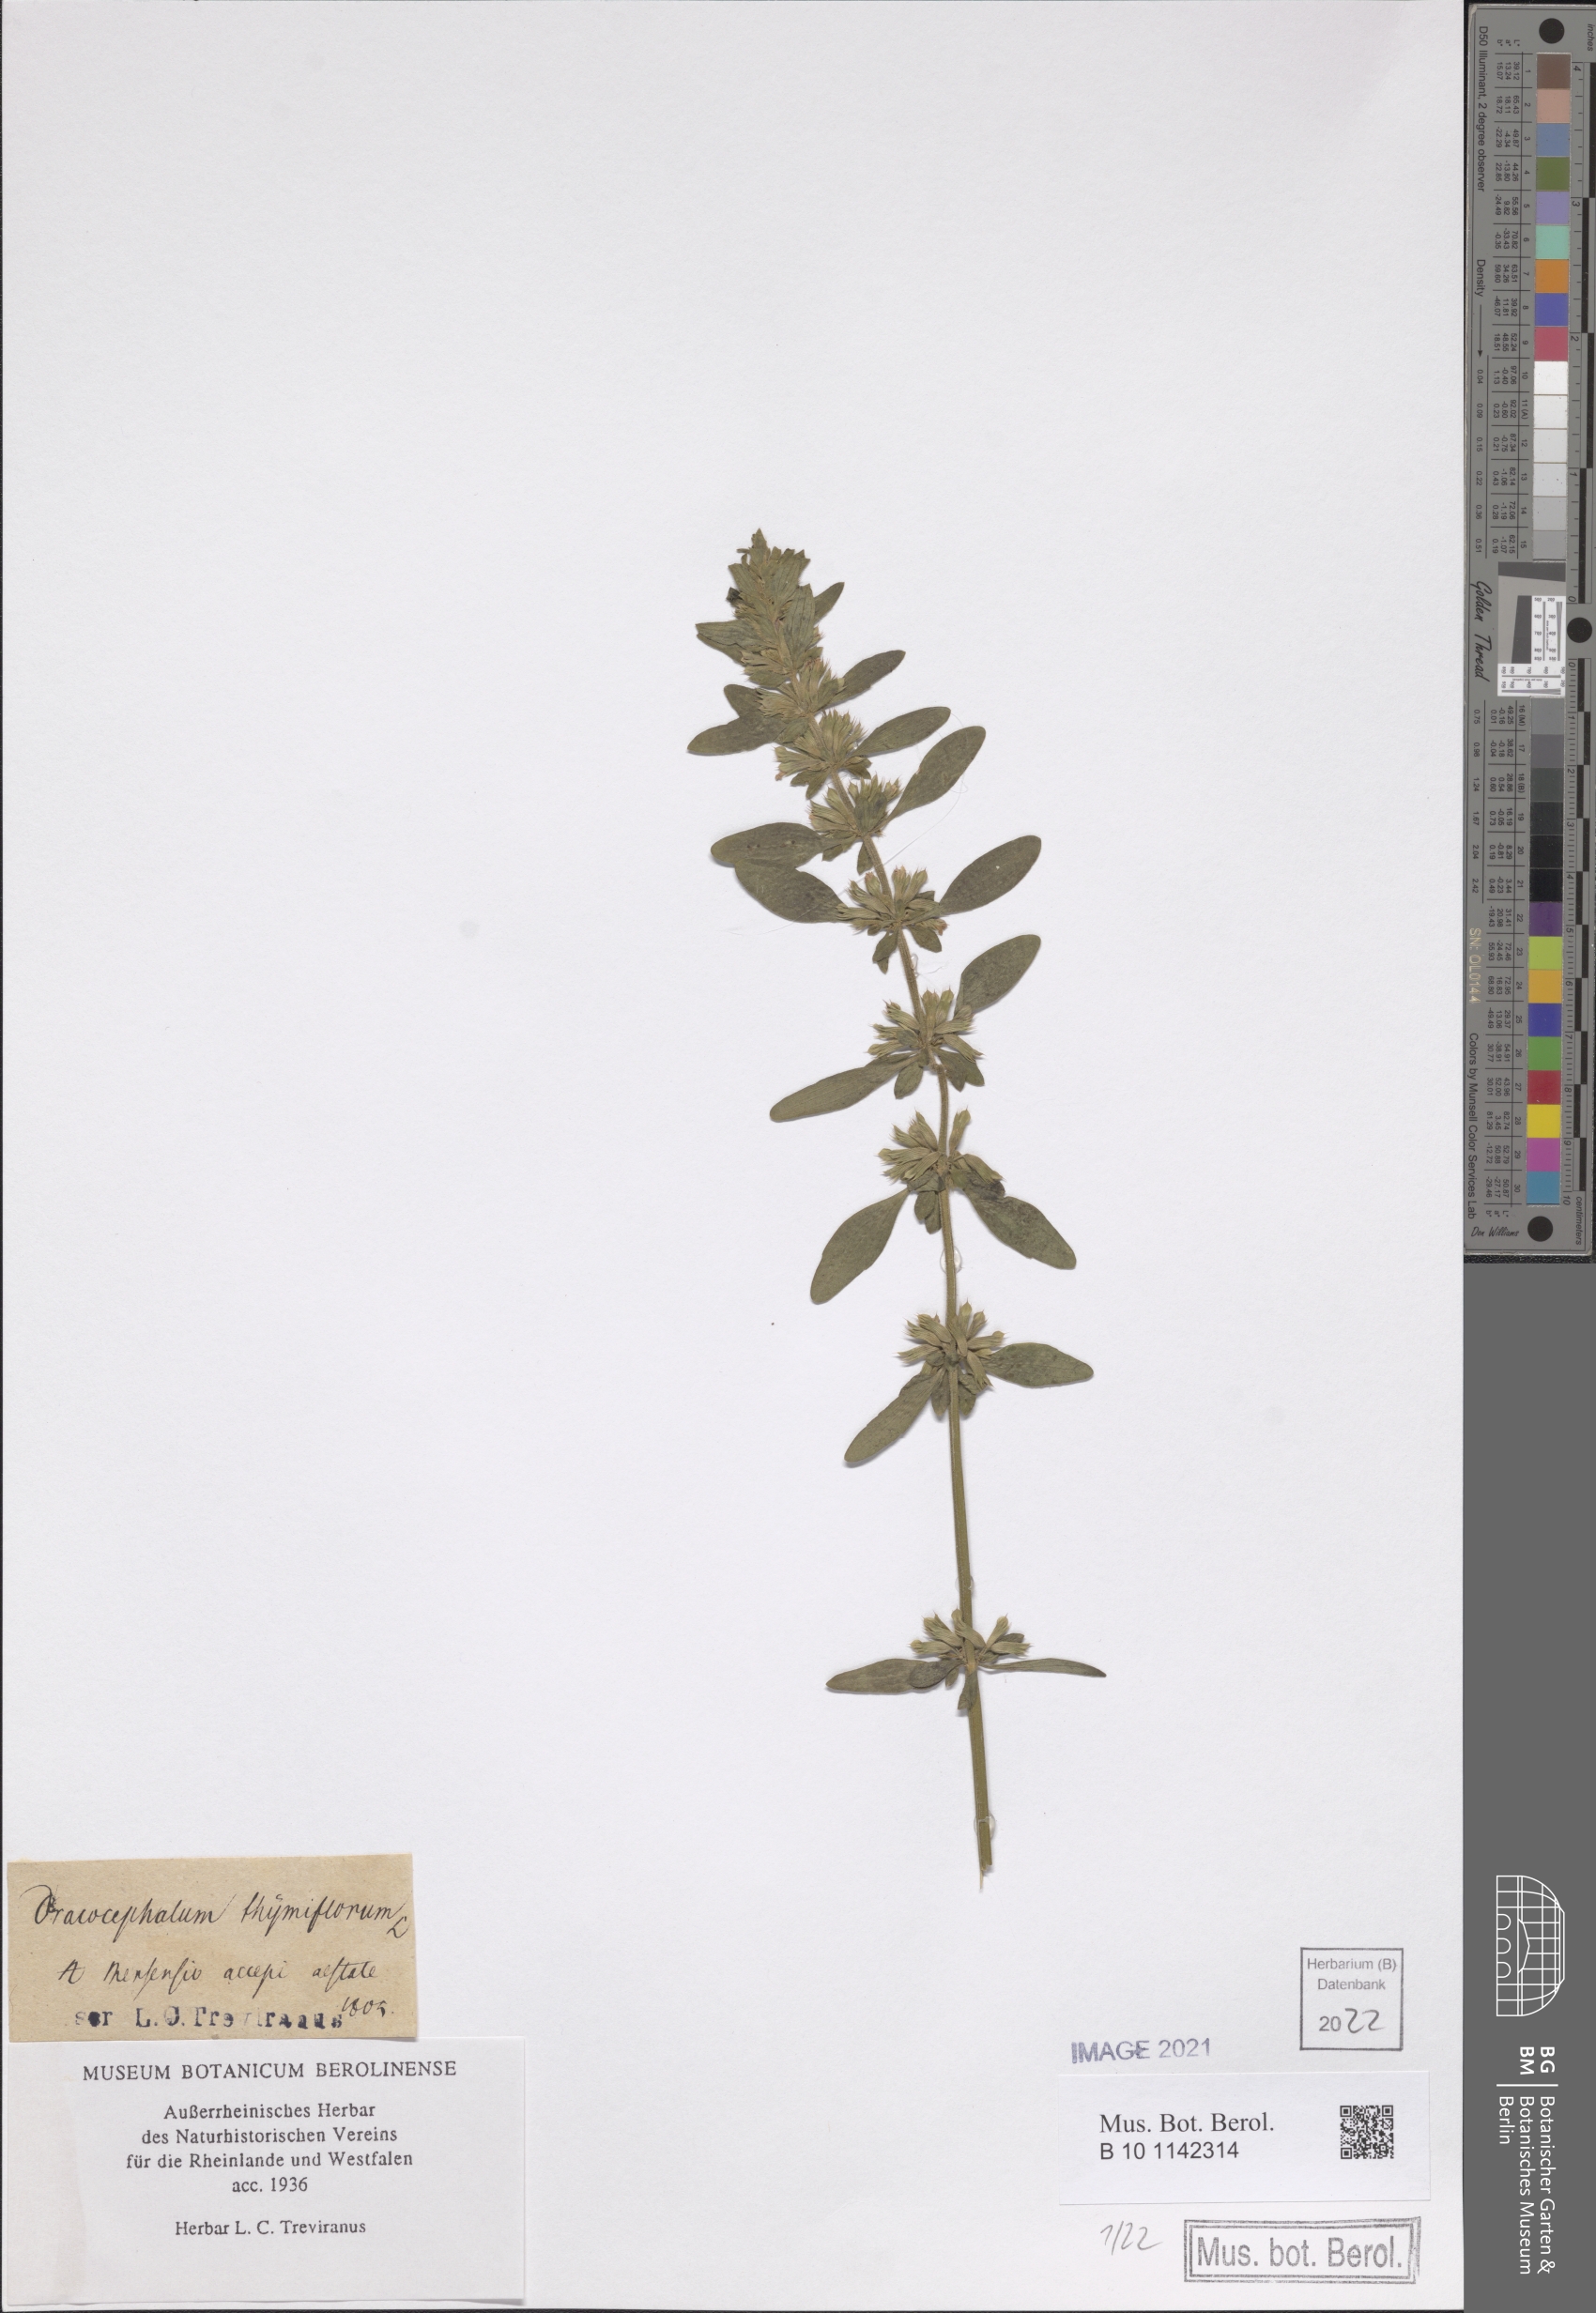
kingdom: Plantae
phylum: Tracheophyta
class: Magnoliopsida
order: Lamiales
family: Lamiaceae
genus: Dracocephalum
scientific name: Dracocephalum thymiflorum
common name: Thymeleaf dragonhead
